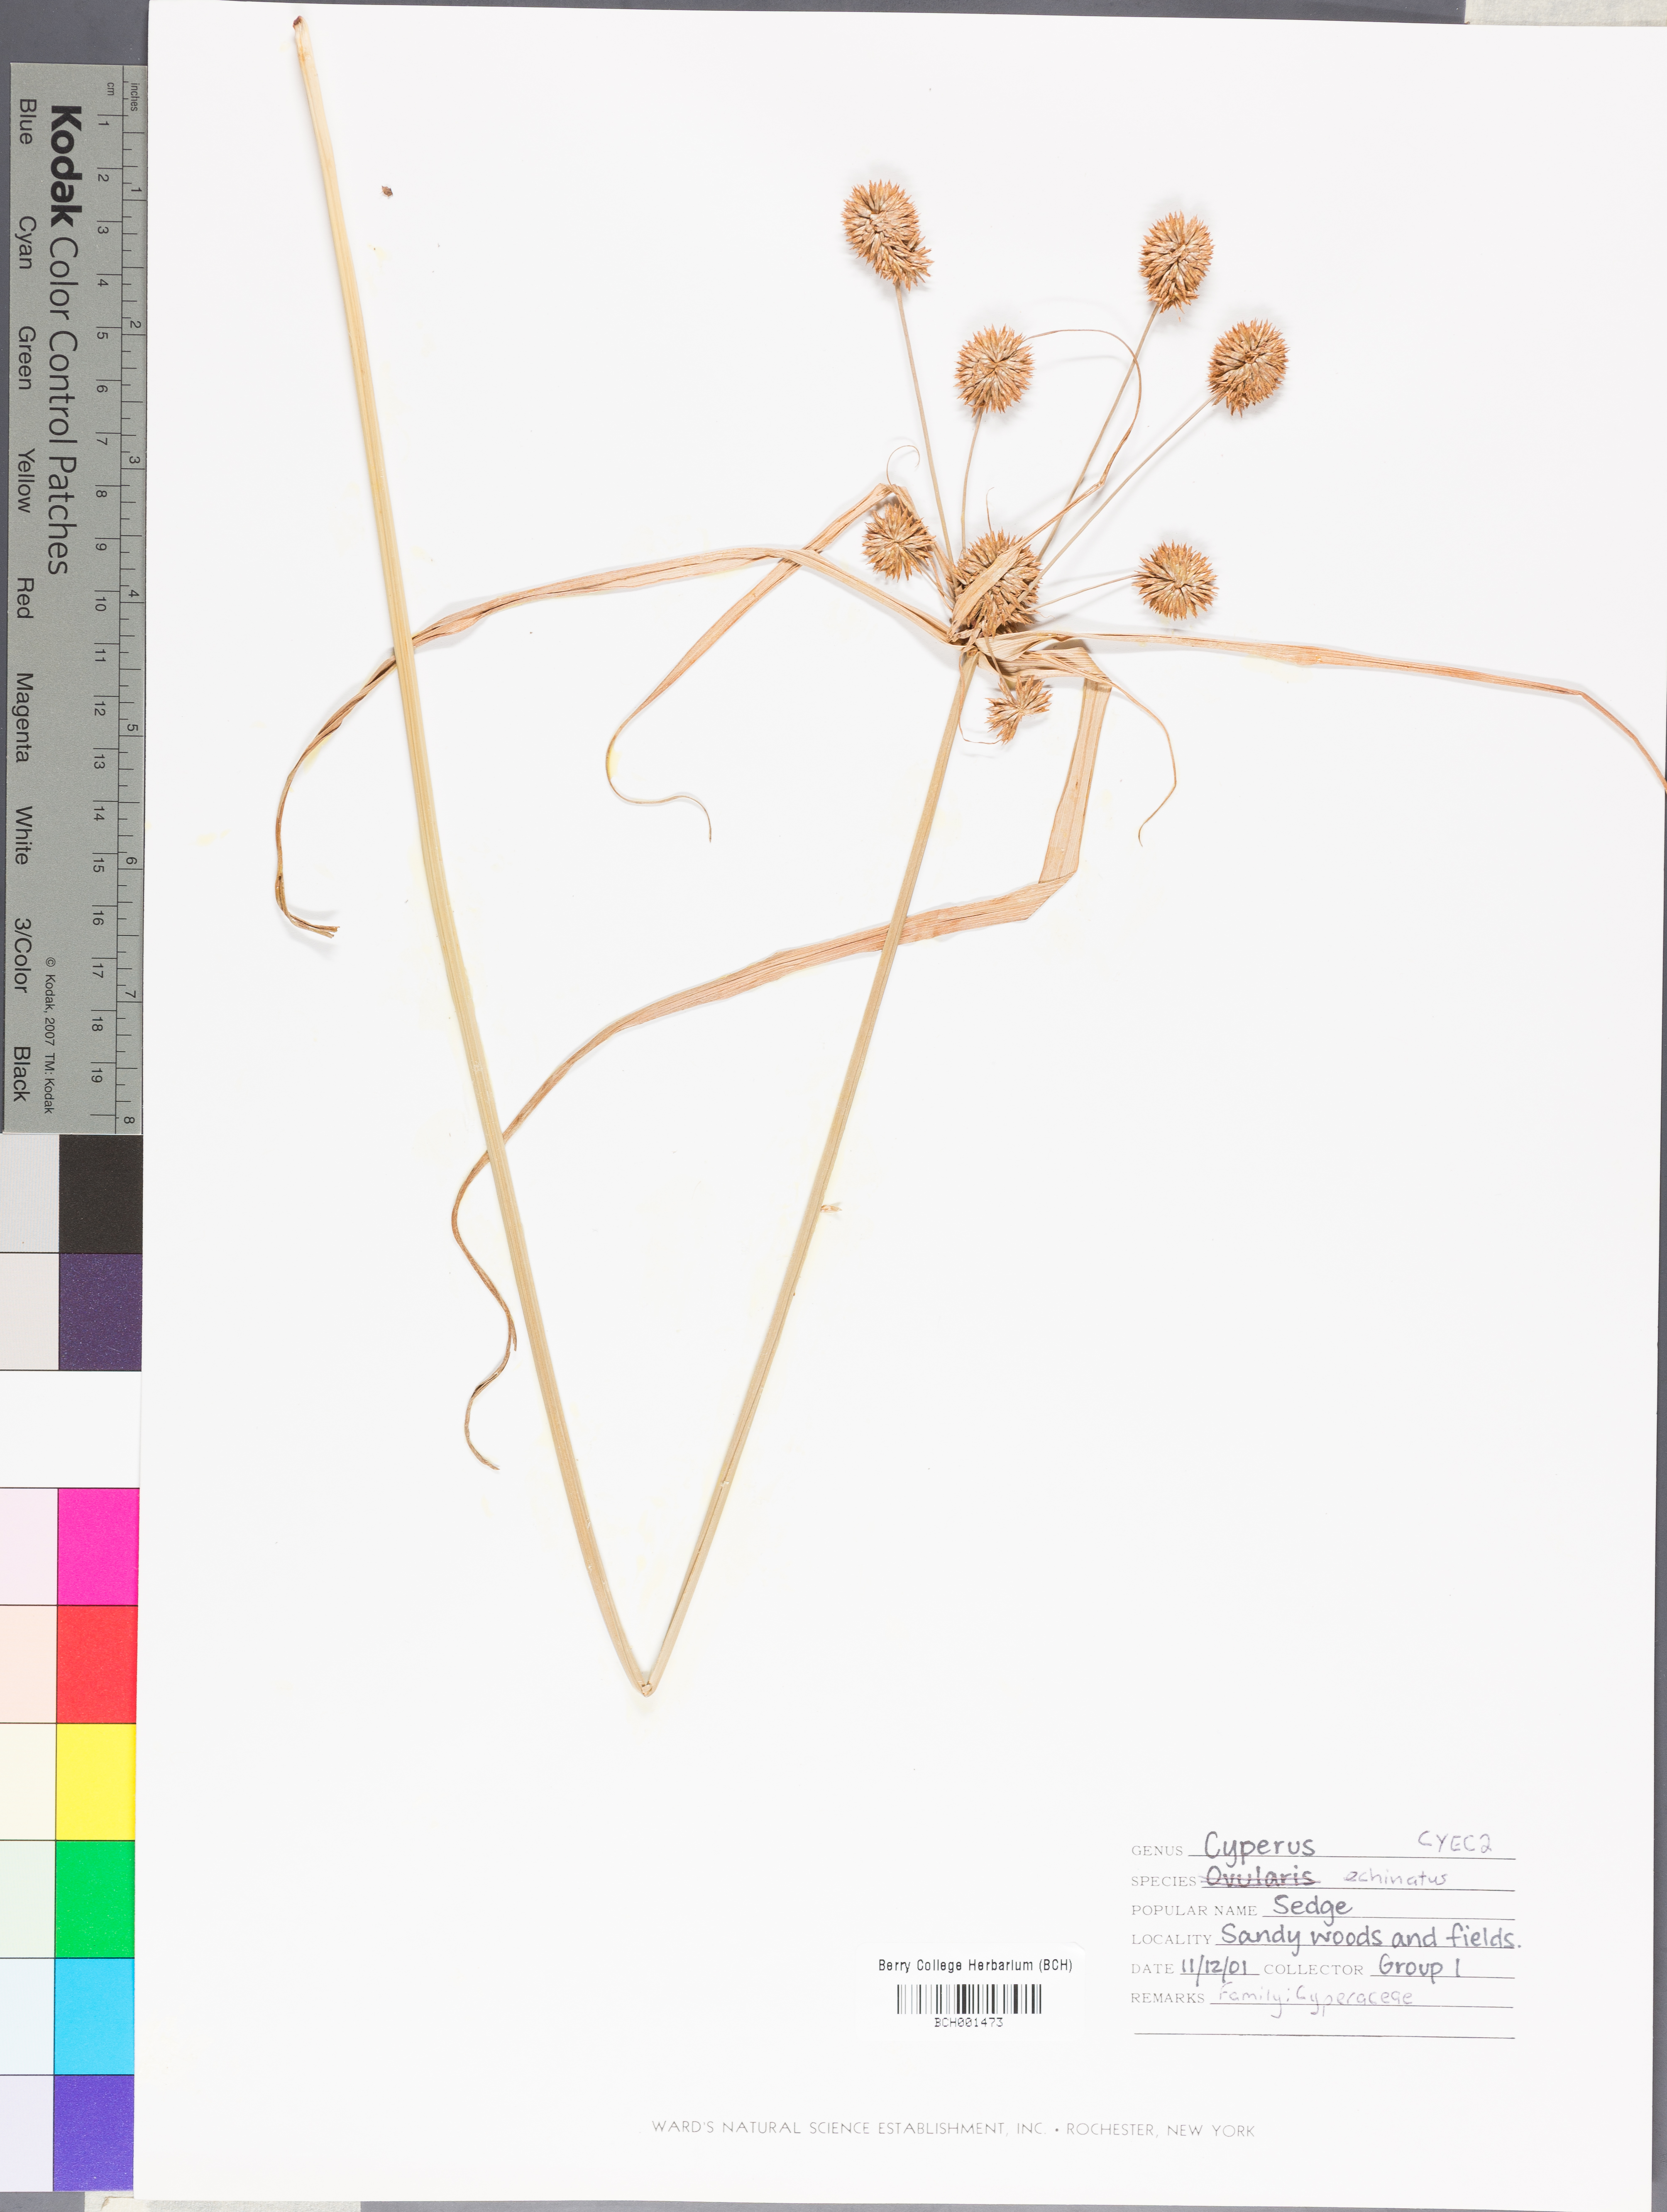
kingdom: Plantae
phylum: Tracheophyta
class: Liliopsida
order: Poales
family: Cyperaceae
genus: Cyperus
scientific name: Cyperus echinatus
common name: Teasel sedge
